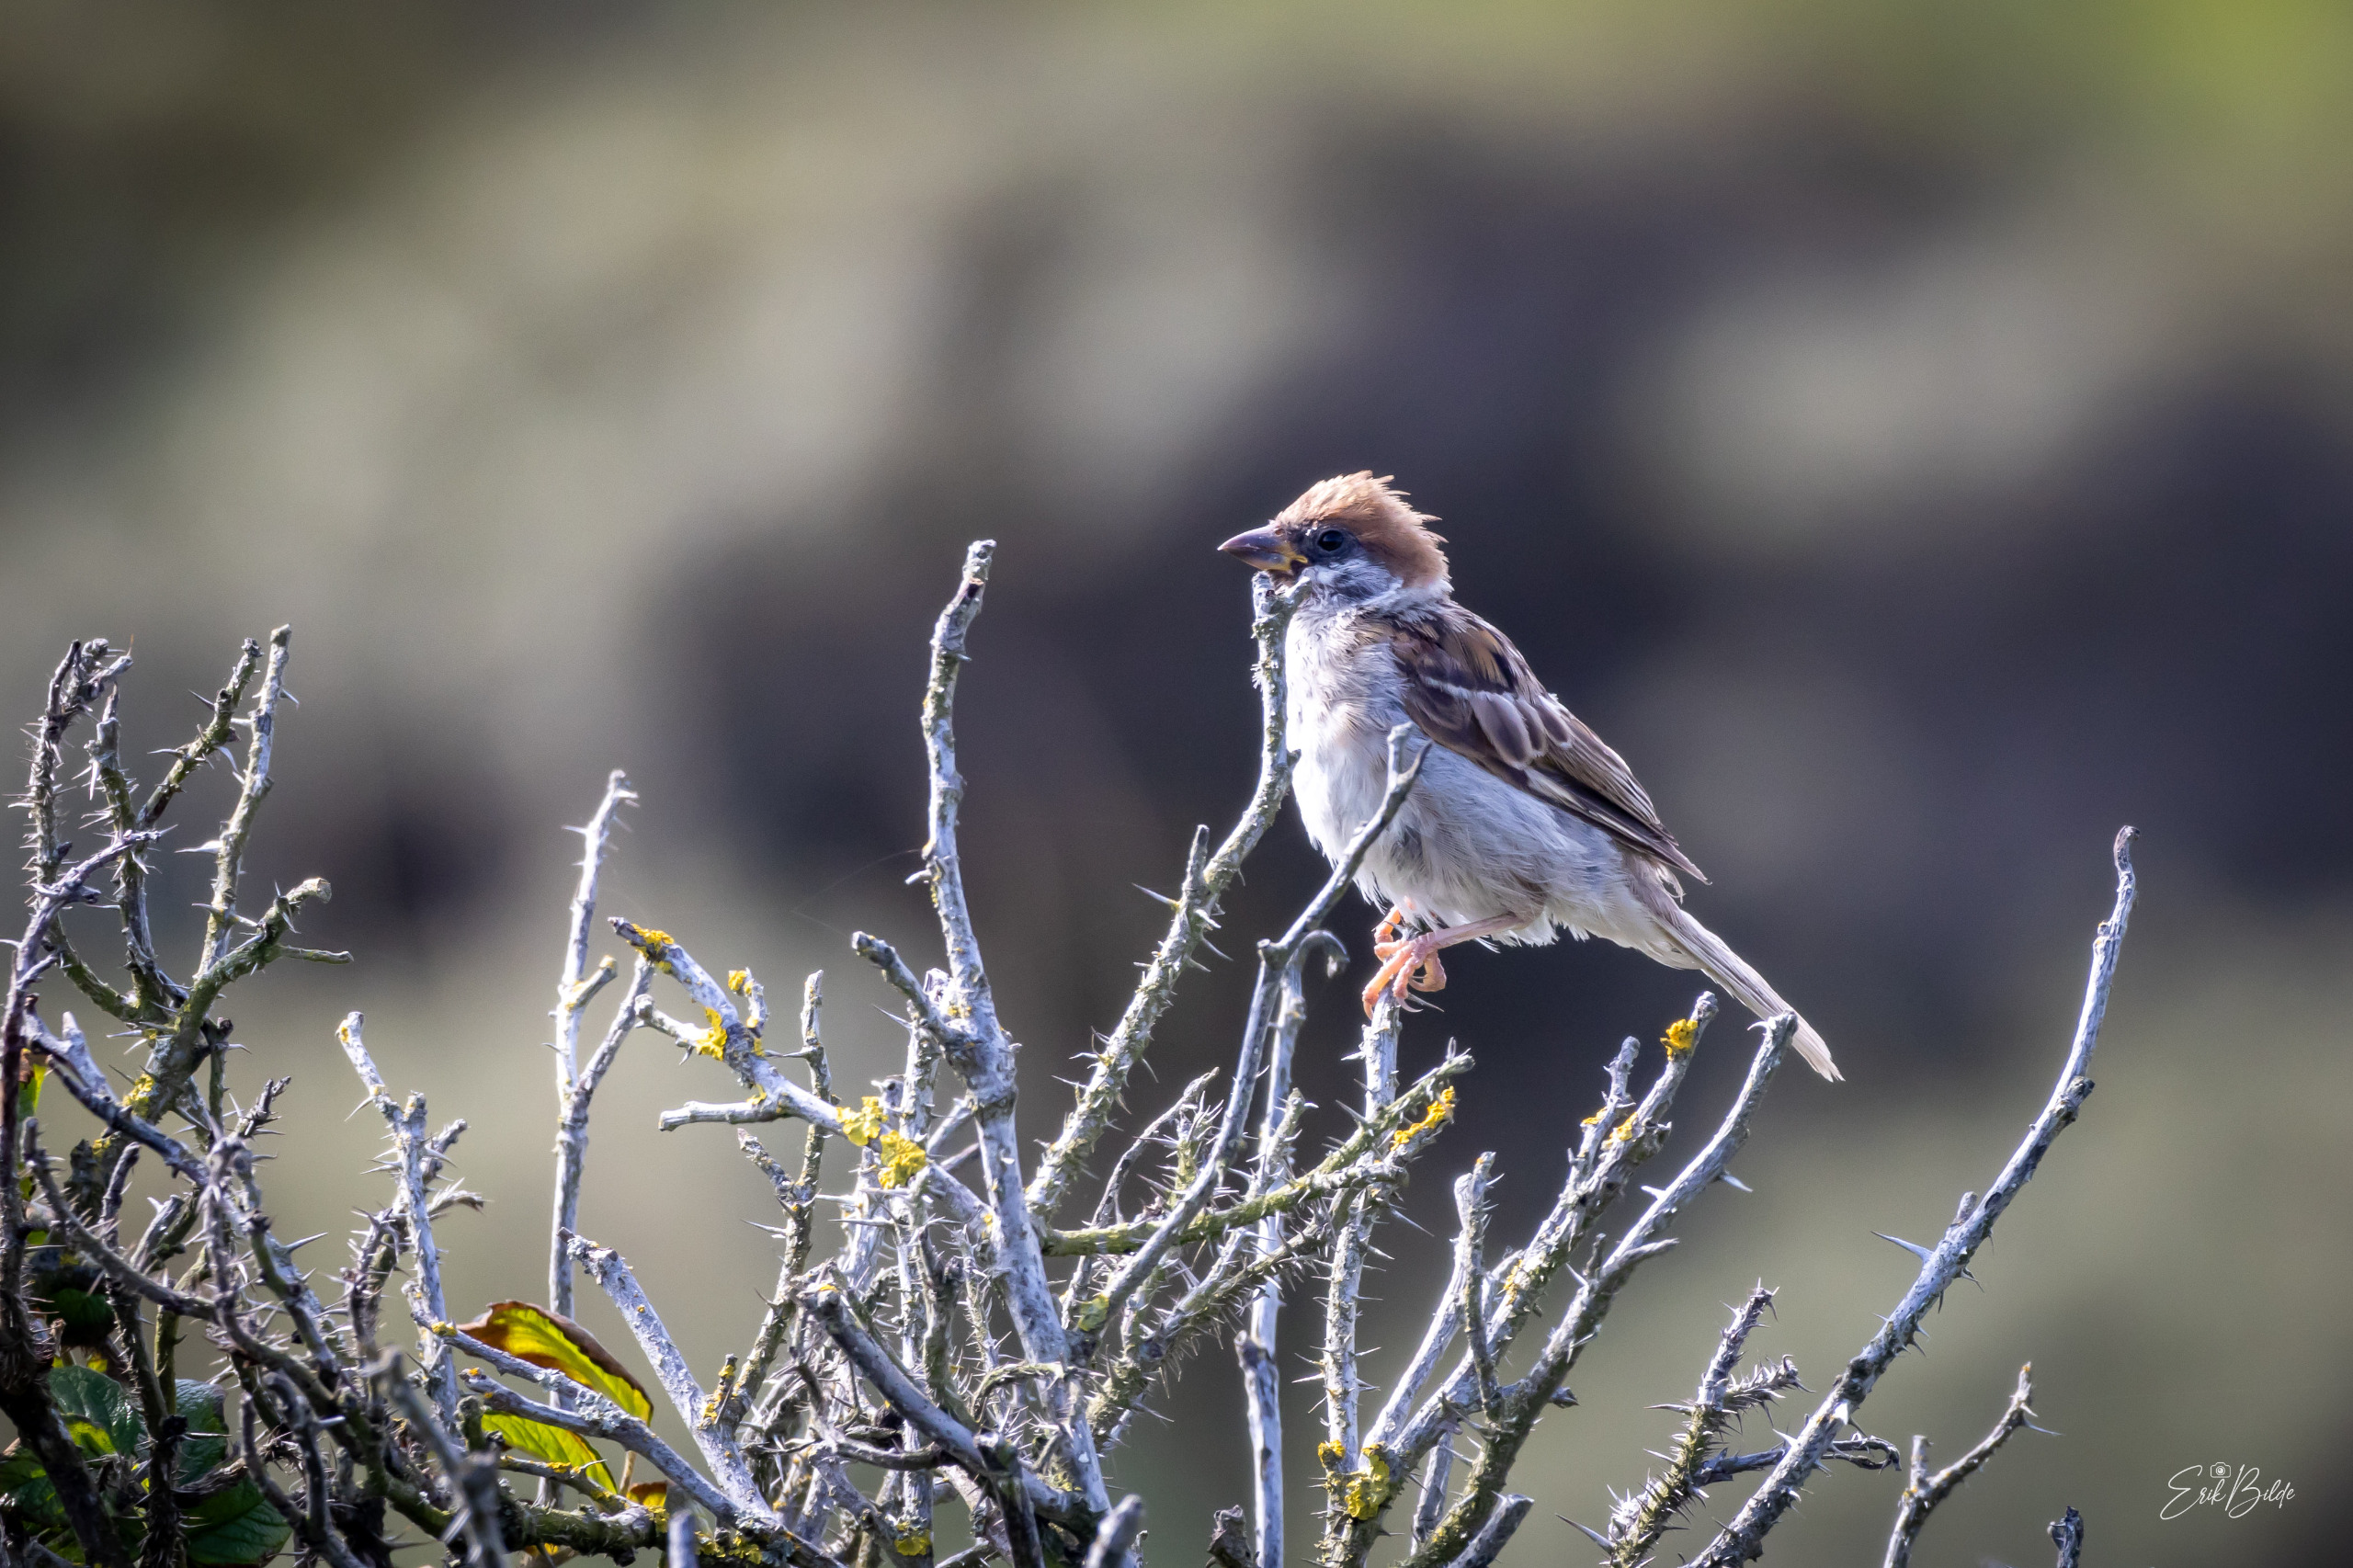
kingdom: Animalia
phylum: Chordata
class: Aves
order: Passeriformes
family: Passeridae
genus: Passer
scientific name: Passer montanus
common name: Skovspurv
